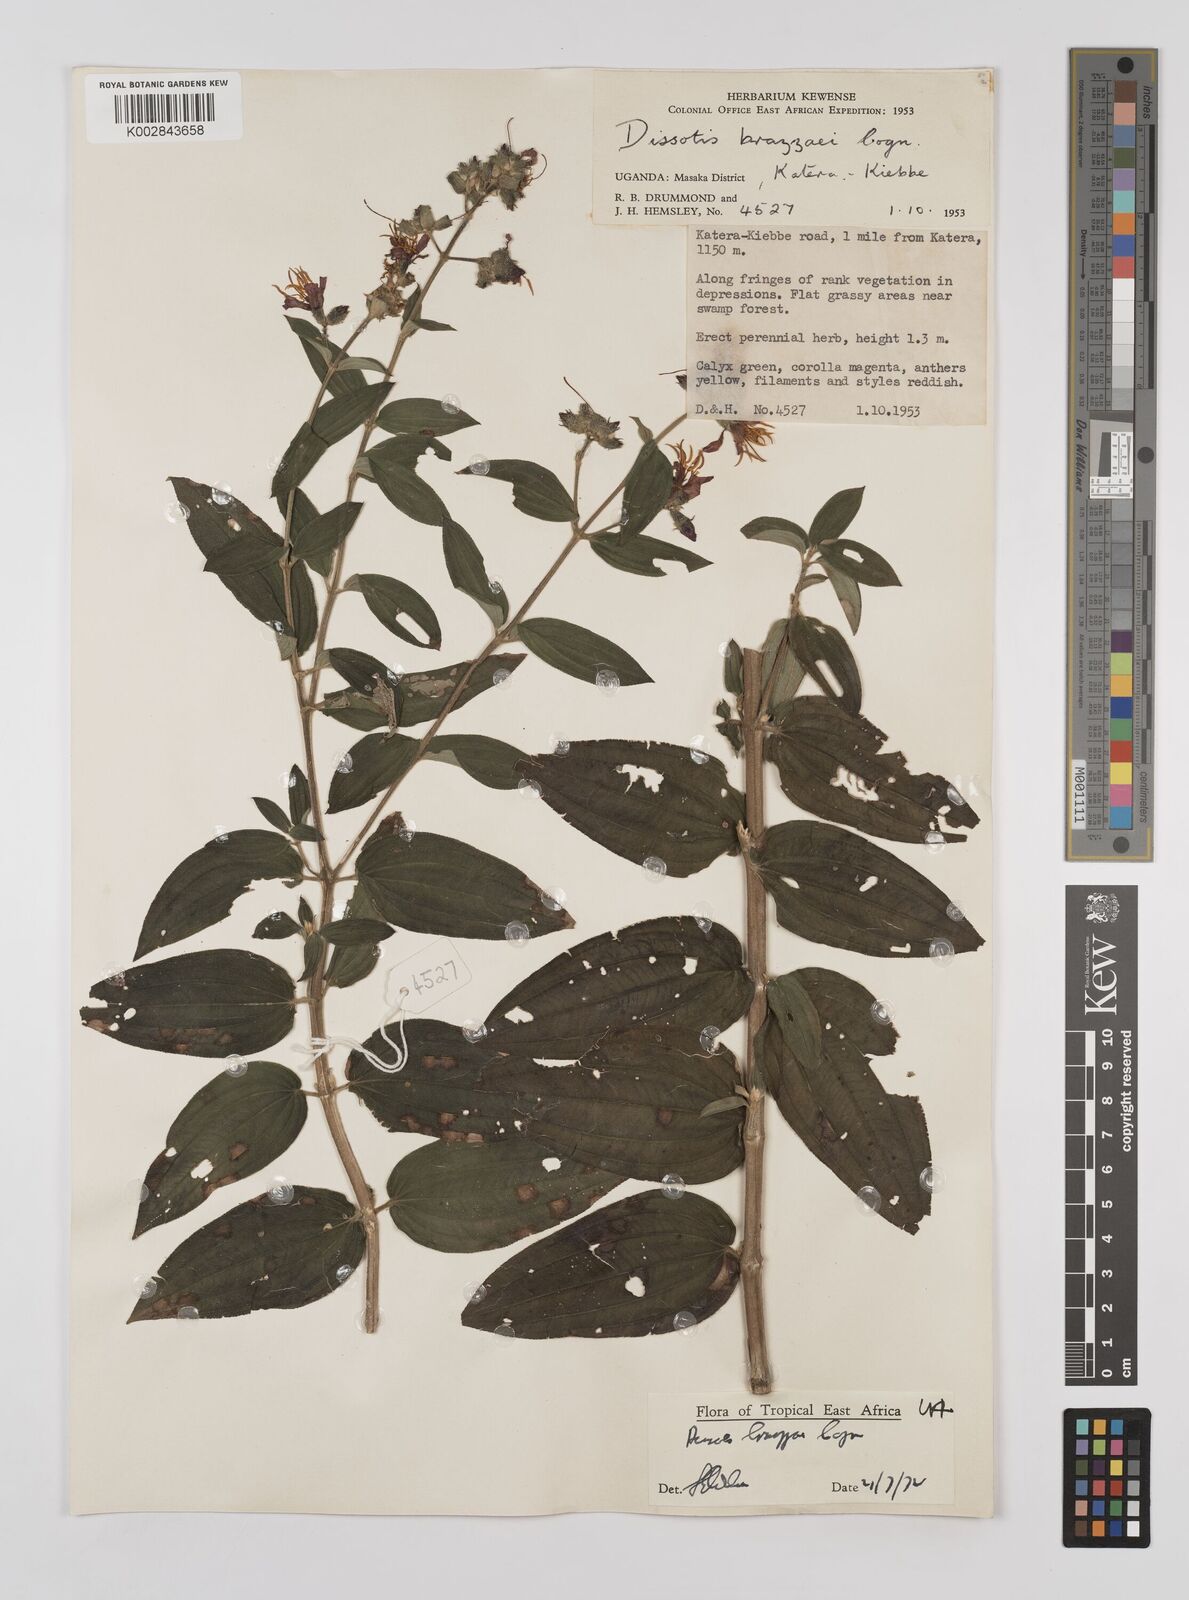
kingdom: Plantae
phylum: Tracheophyta
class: Magnoliopsida
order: Myrtales
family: Melastomataceae
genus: Dupineta
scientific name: Dupineta brazzae
